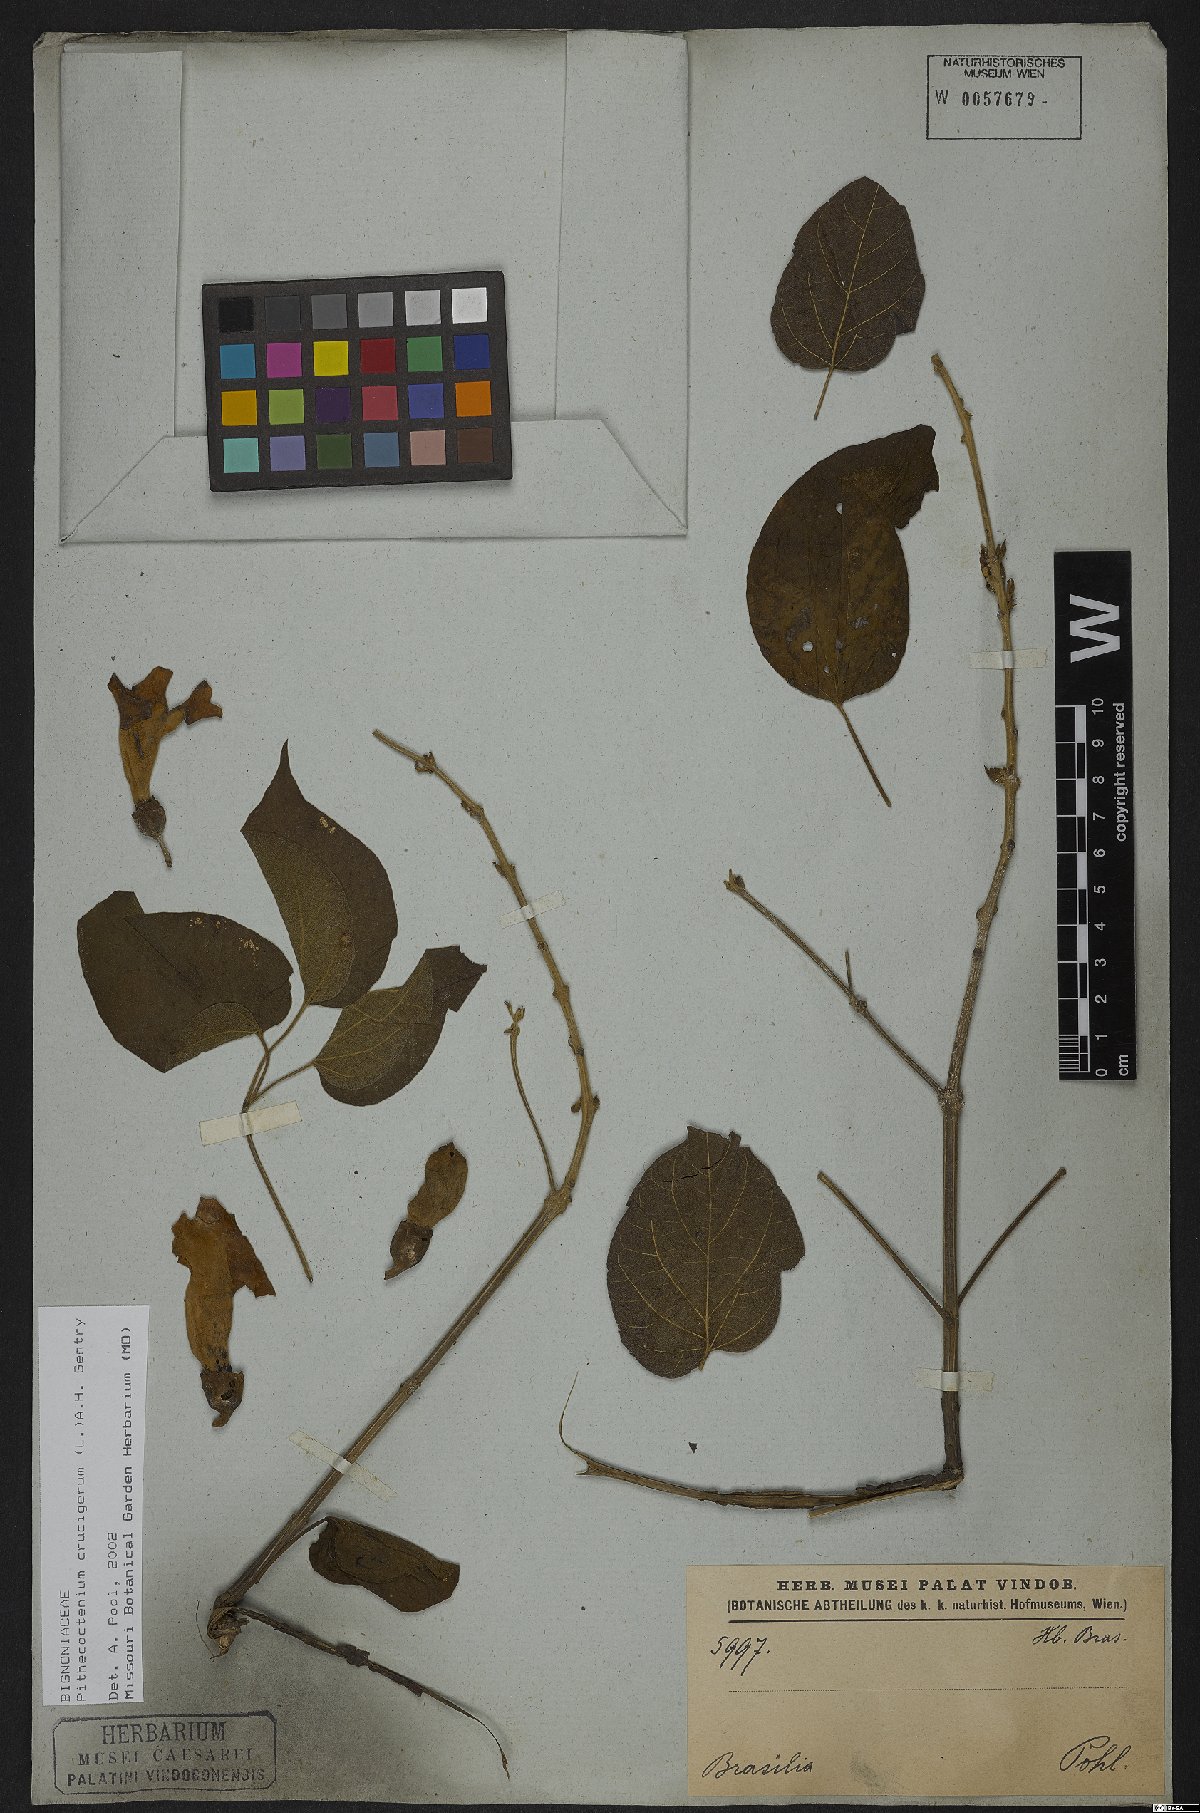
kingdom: Plantae
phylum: Tracheophyta
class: Magnoliopsida
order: Lamiales
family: Bignoniaceae
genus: Amphilophium
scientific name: Amphilophium crucigerum
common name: Monkey comb
